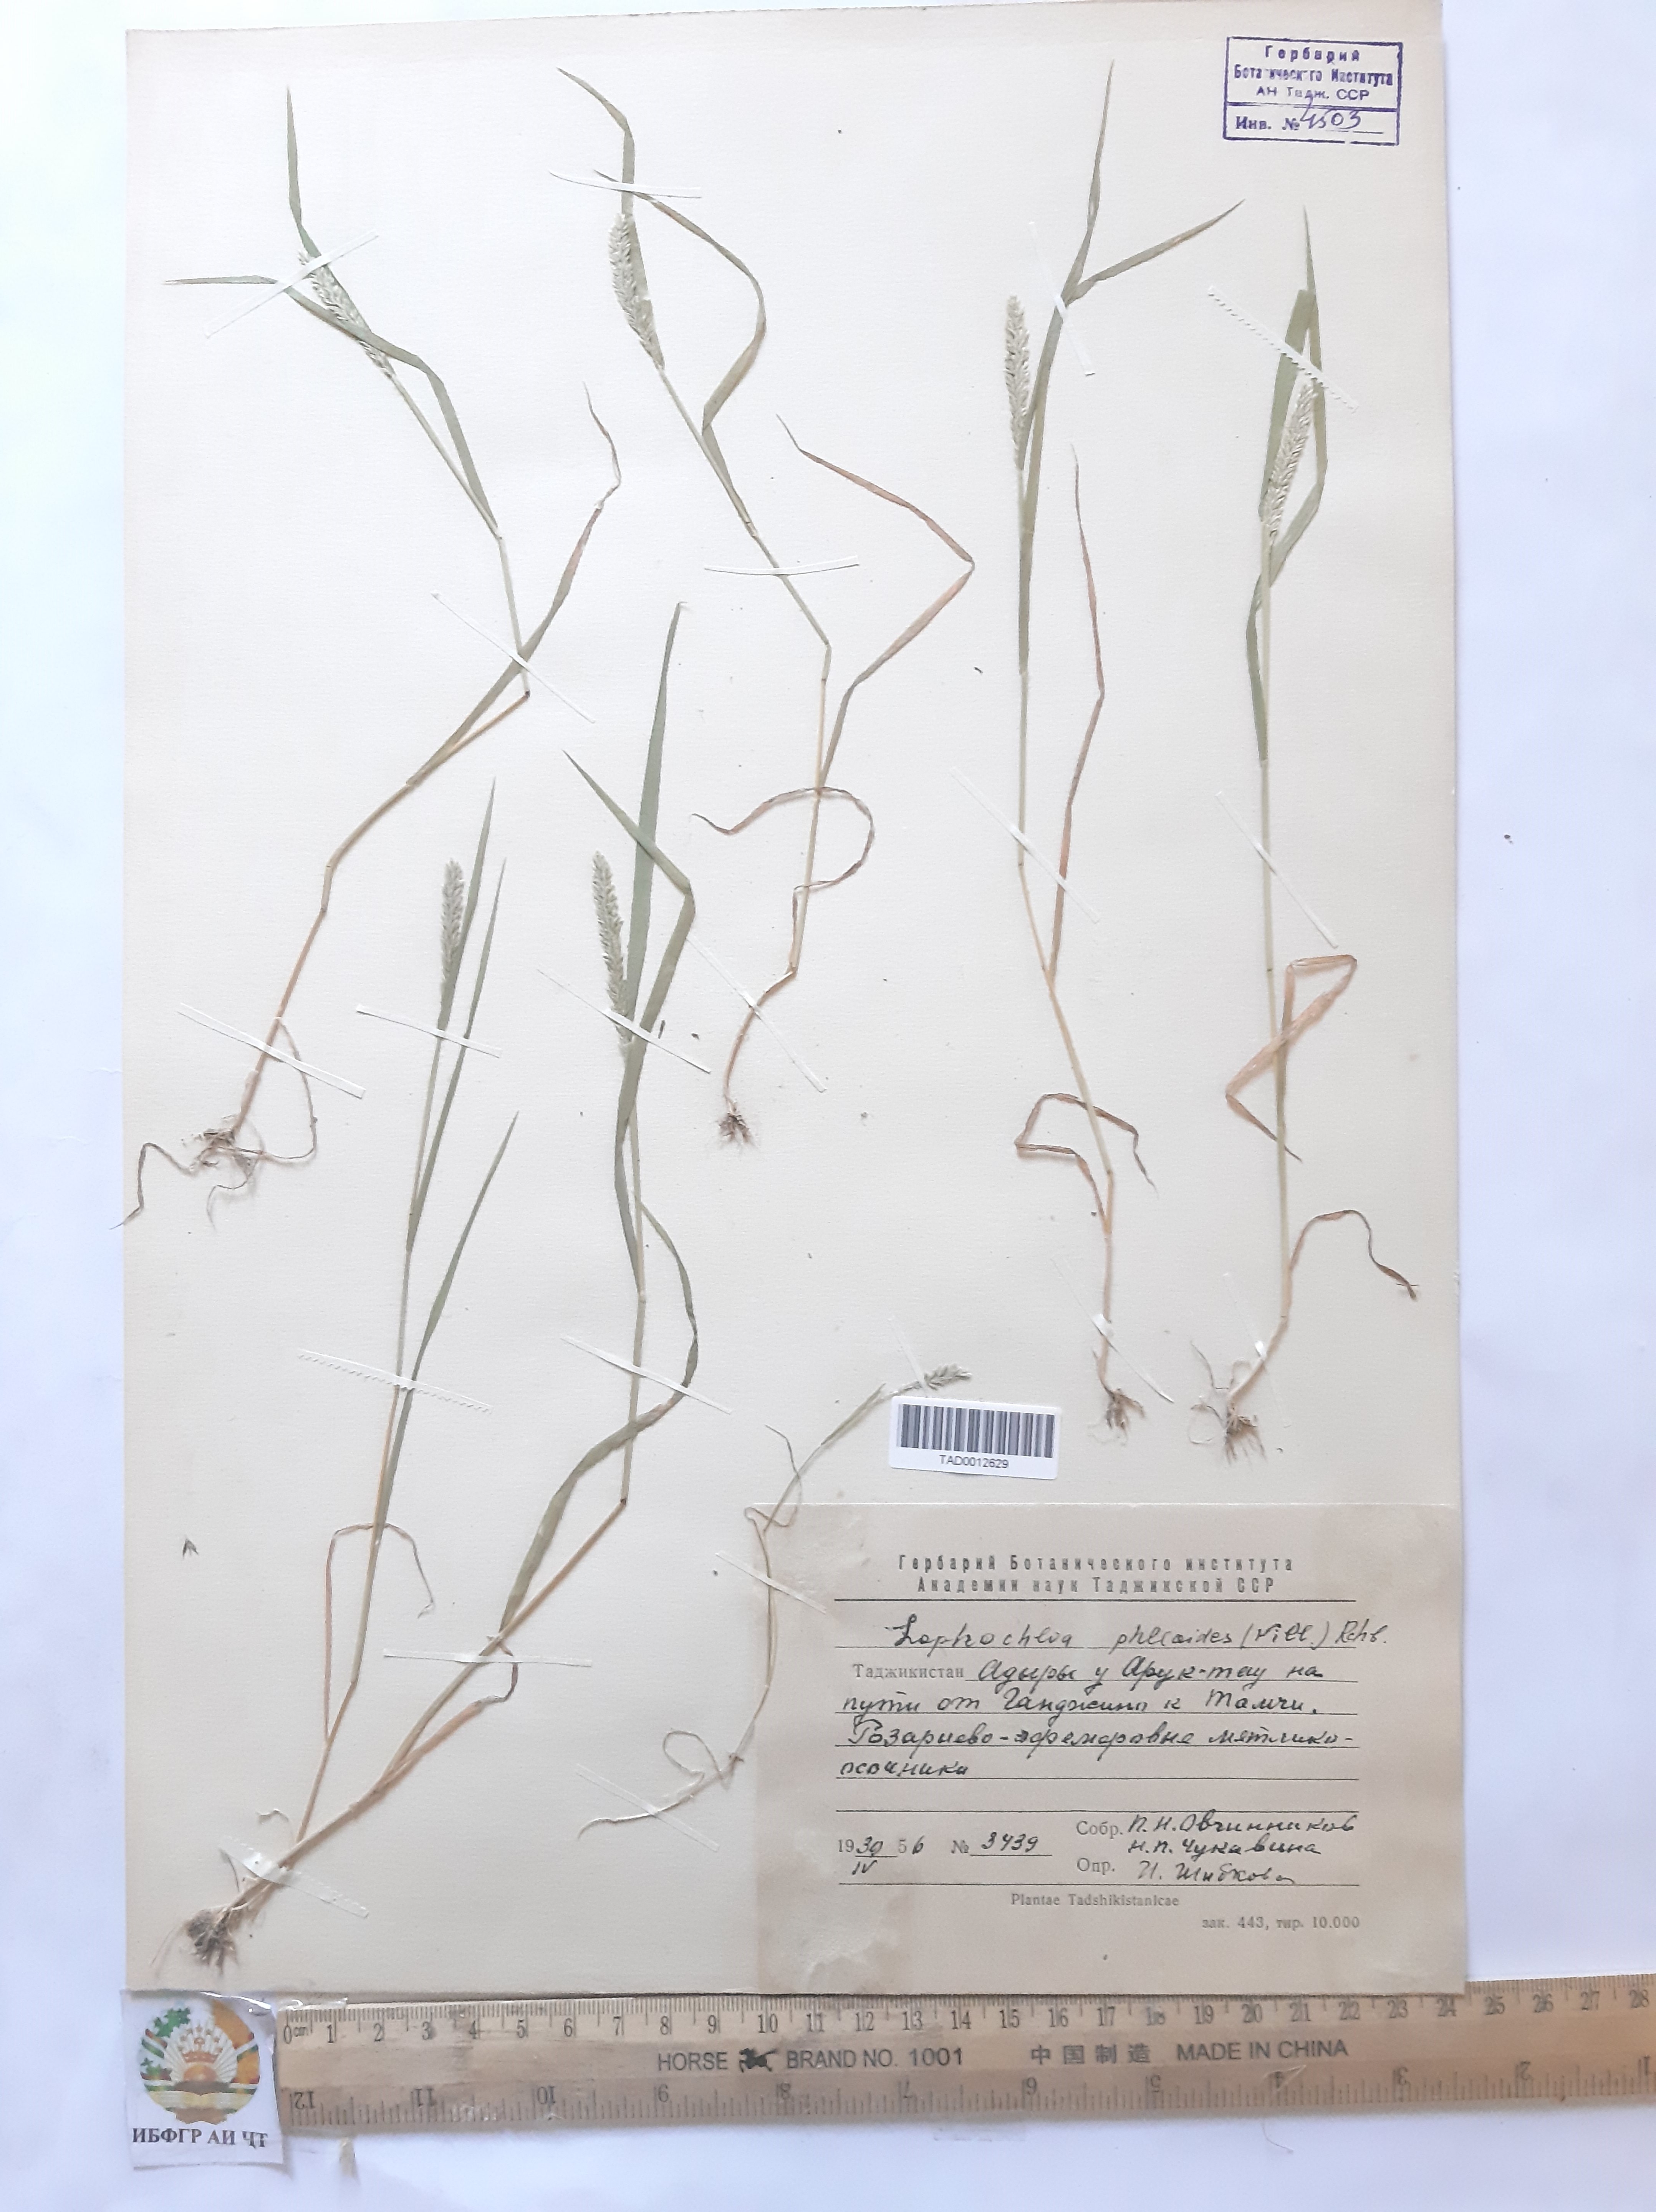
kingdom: Plantae
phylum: Tracheophyta
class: Liliopsida
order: Poales
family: Poaceae
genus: Rostraria
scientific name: Rostraria cristata
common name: Mediterranean hair-grass
